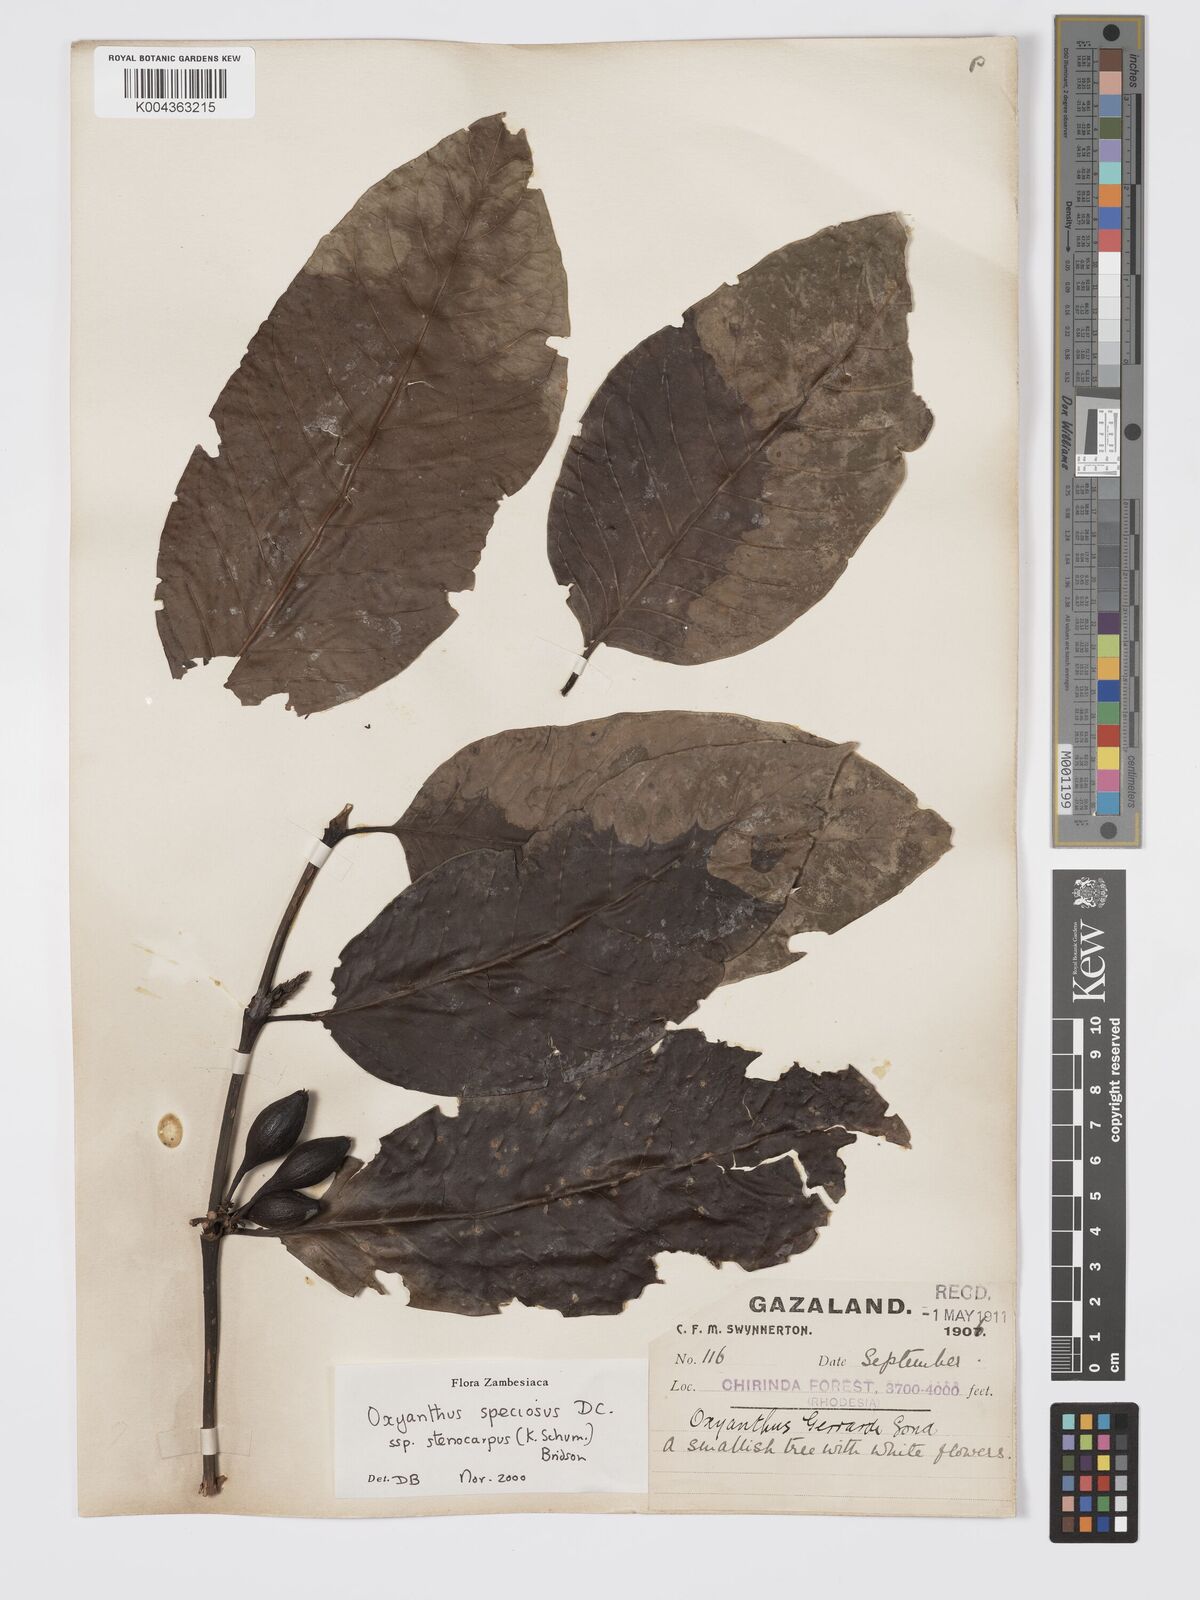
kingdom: Plantae
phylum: Tracheophyta
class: Magnoliopsida
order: Gentianales
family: Rubiaceae
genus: Oxyanthus
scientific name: Oxyanthus speciosus
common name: Whipstick loquat
